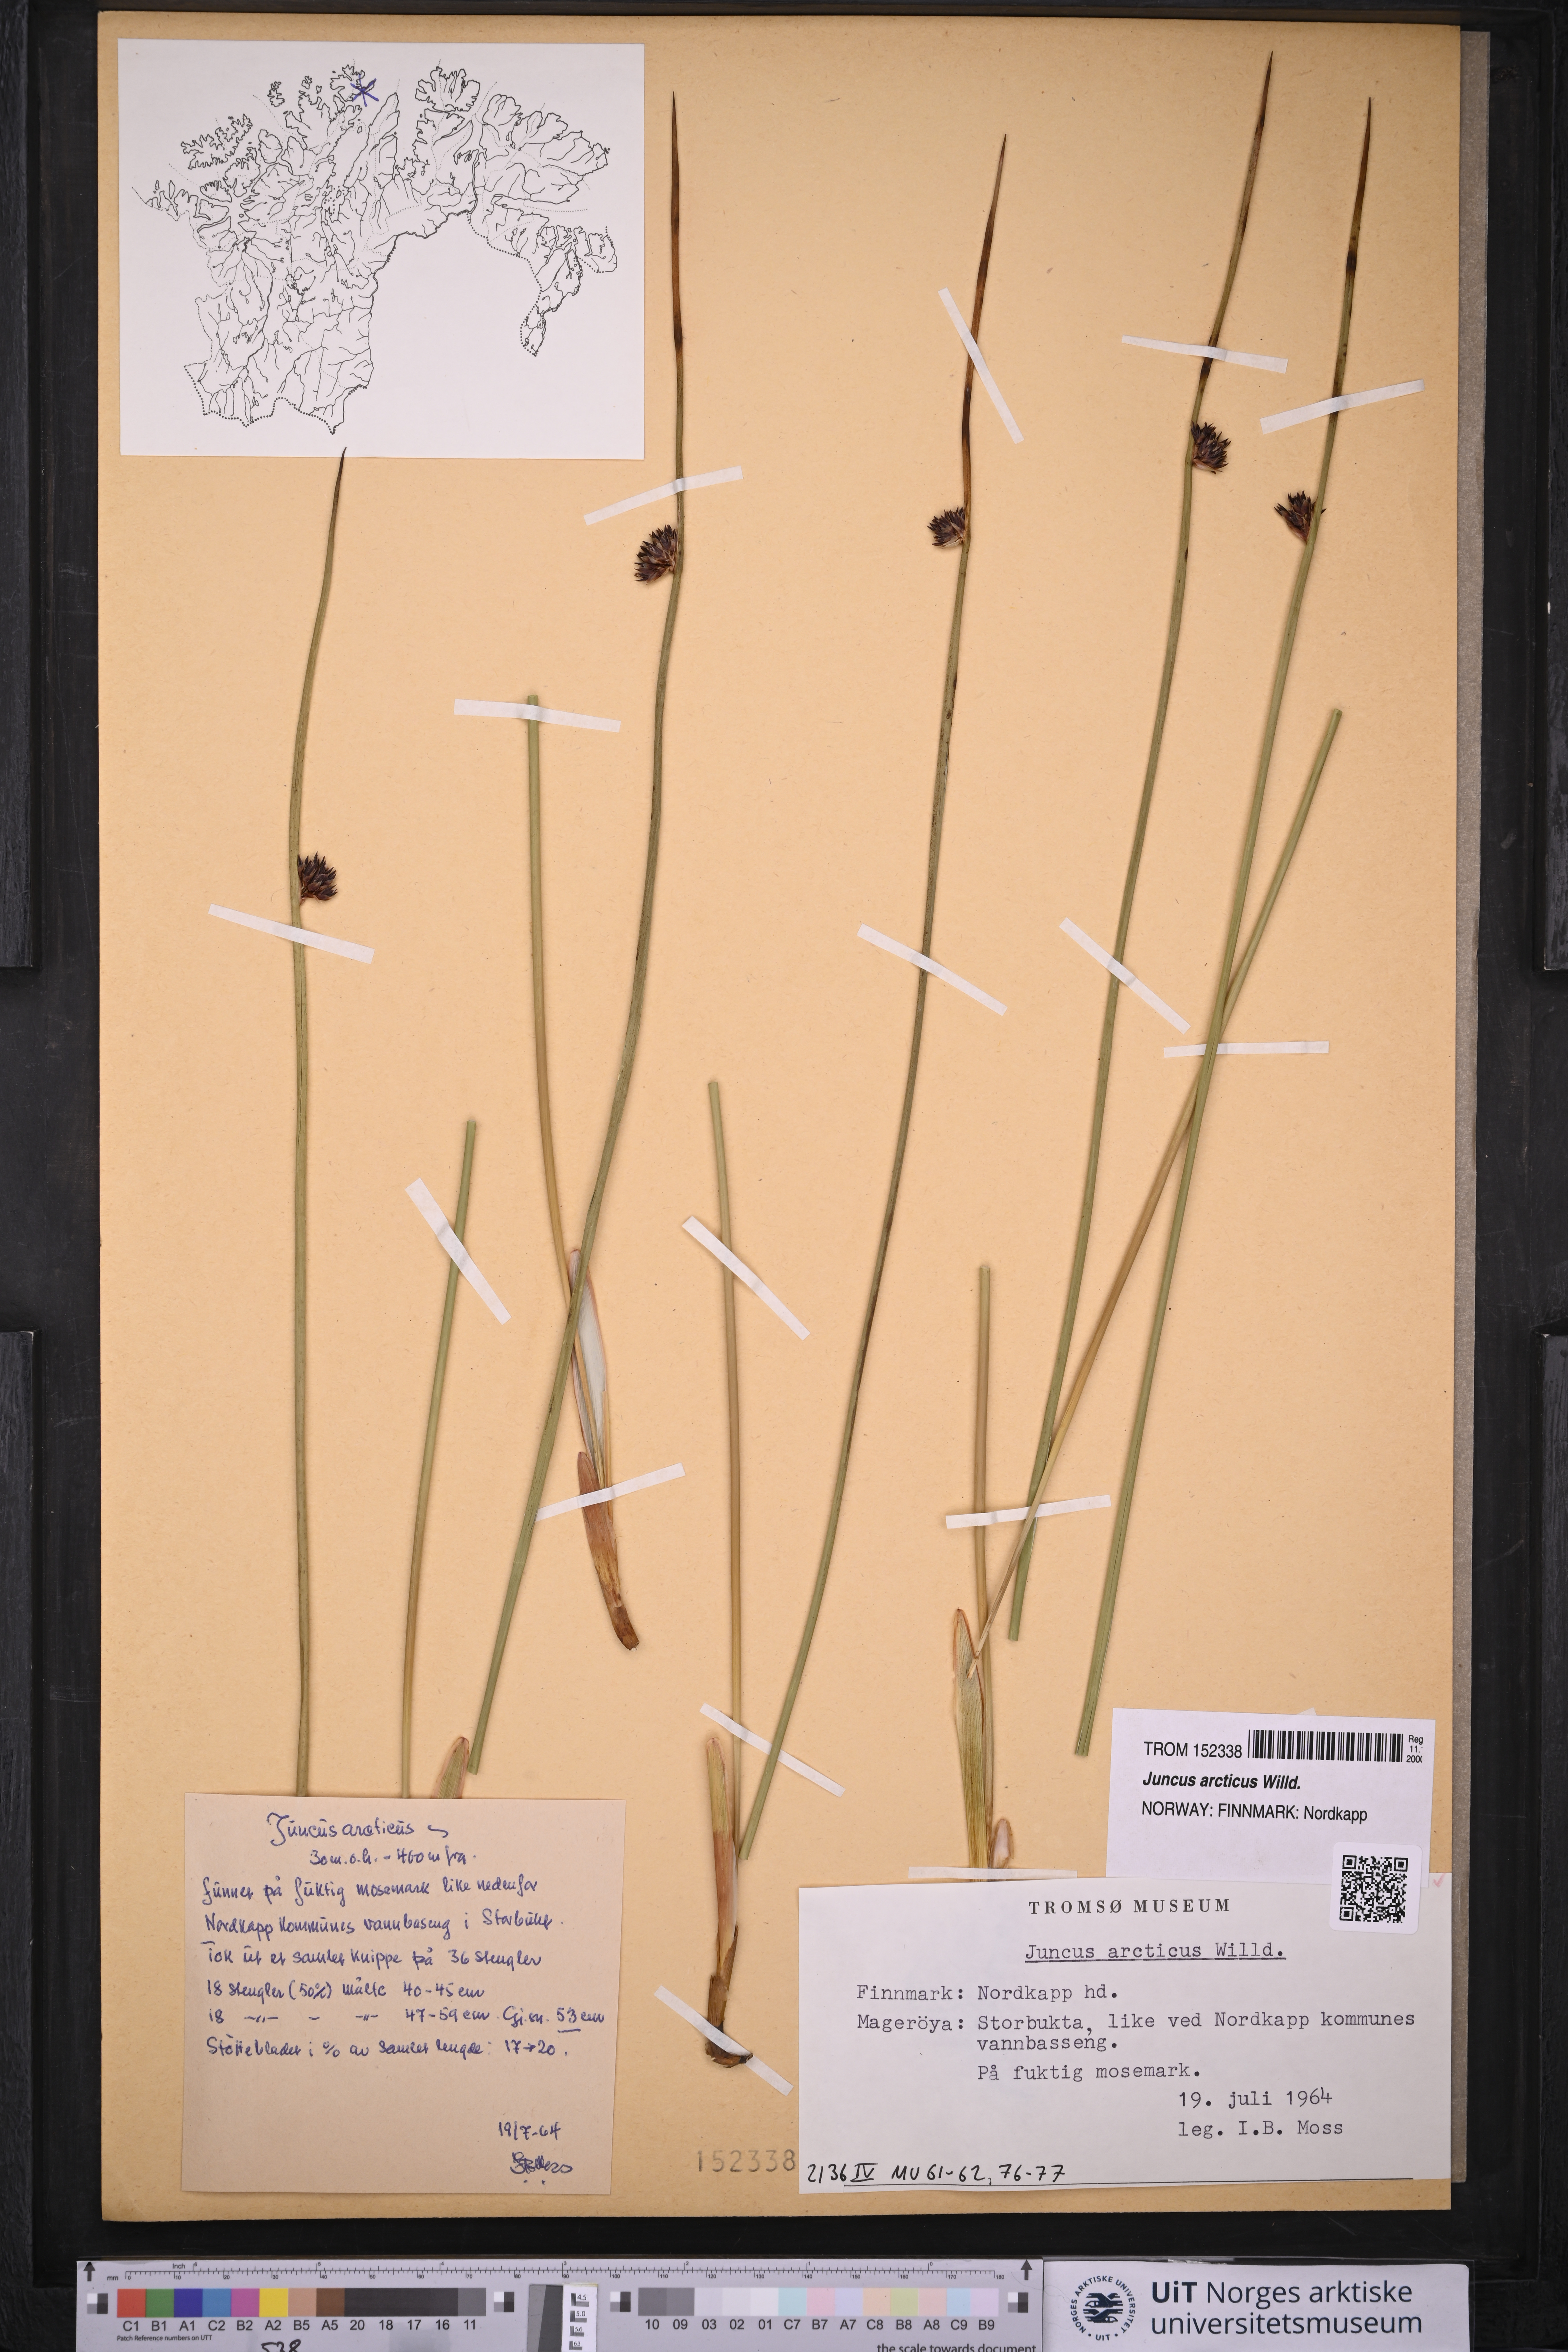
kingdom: Plantae
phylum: Tracheophyta
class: Liliopsida
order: Poales
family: Juncaceae
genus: Juncus
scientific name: Juncus arcticus
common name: Arctic rush
